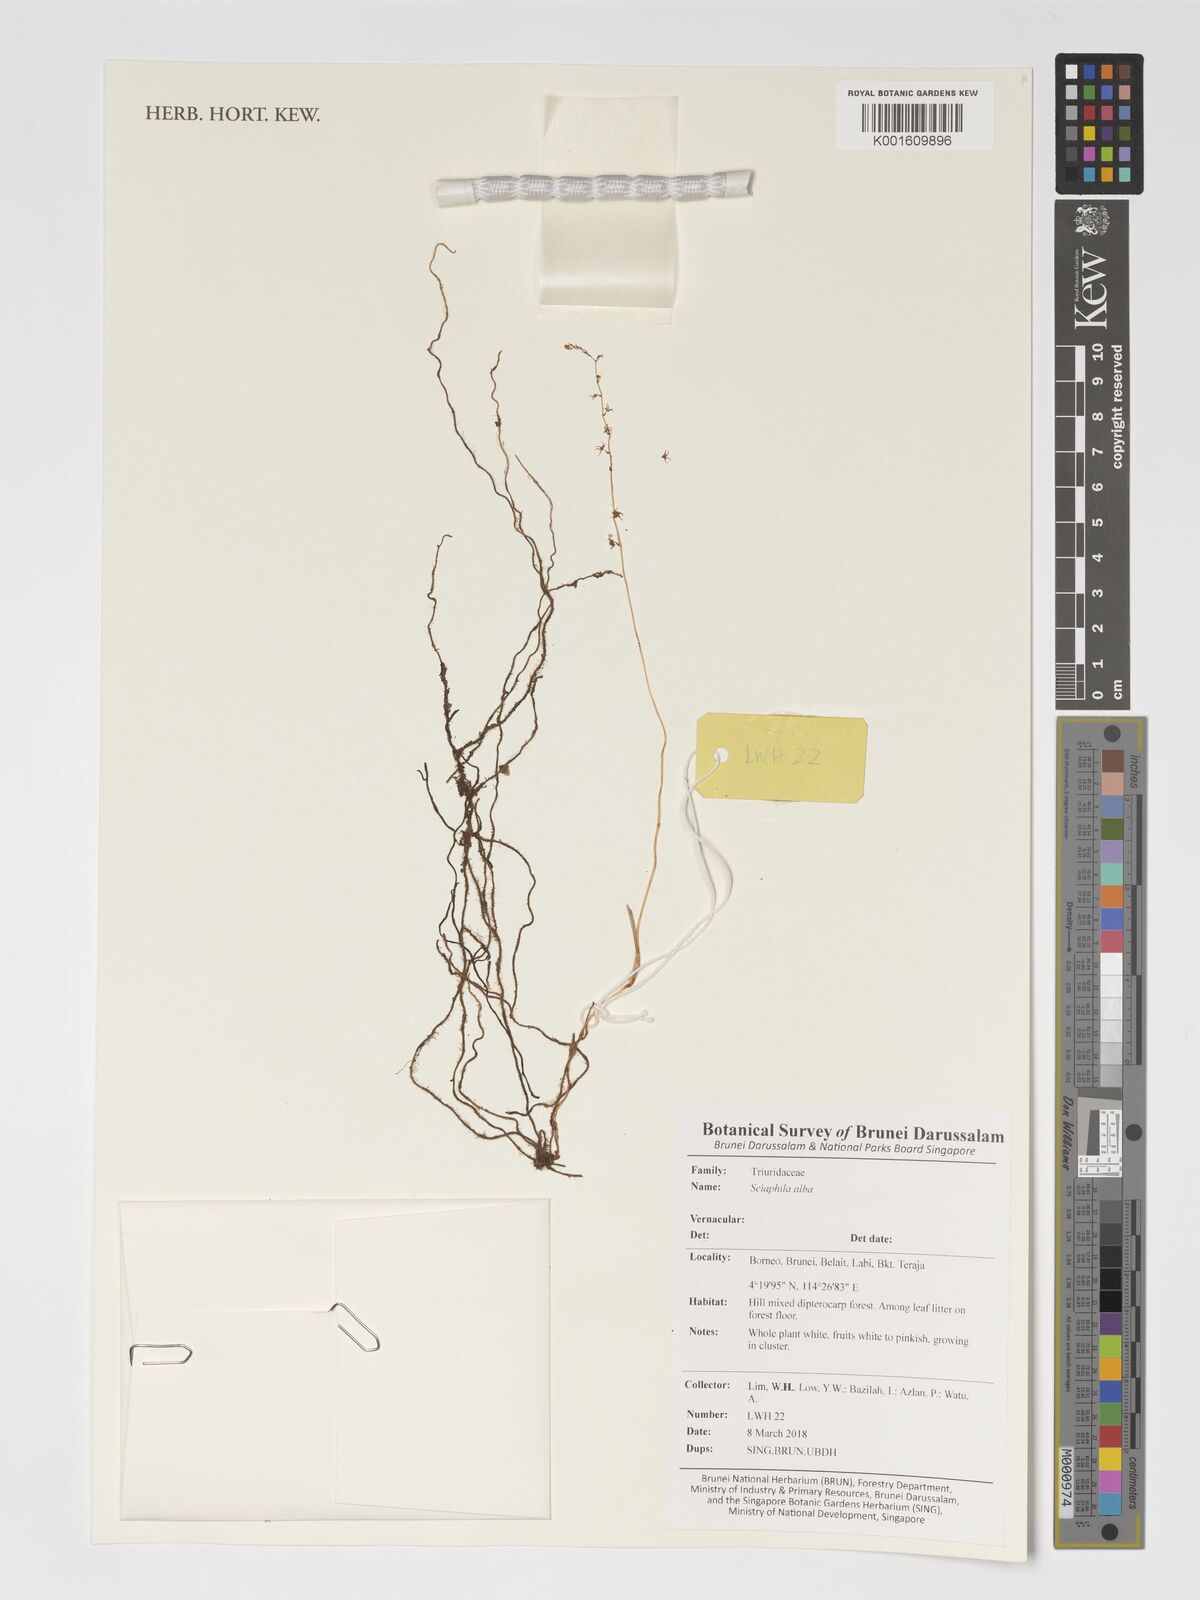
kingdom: Plantae
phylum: Tracheophyta
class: Liliopsida
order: Pandanales
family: Triuridaceae
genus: Sciaphila
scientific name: Sciaphila alba
